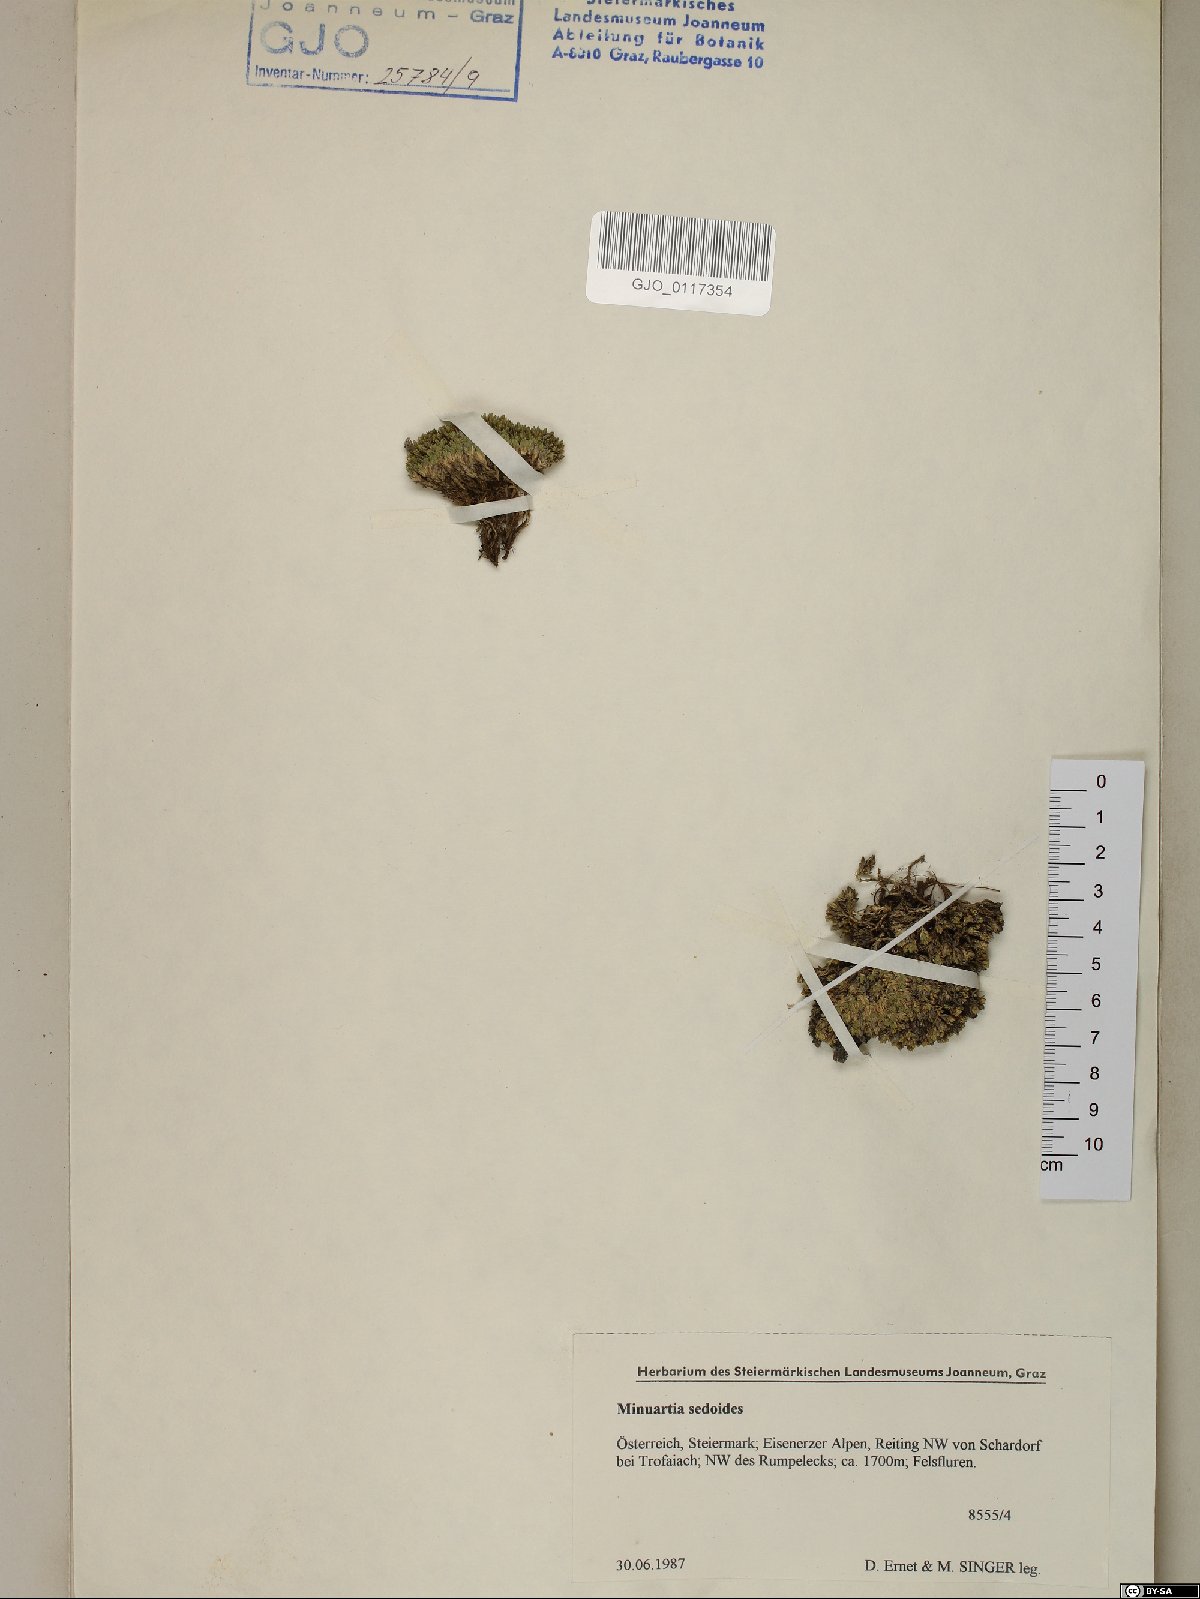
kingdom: Plantae
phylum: Tracheophyta
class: Magnoliopsida
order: Caryophyllales
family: Caryophyllaceae
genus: Cherleria
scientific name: Cherleria sedoides
